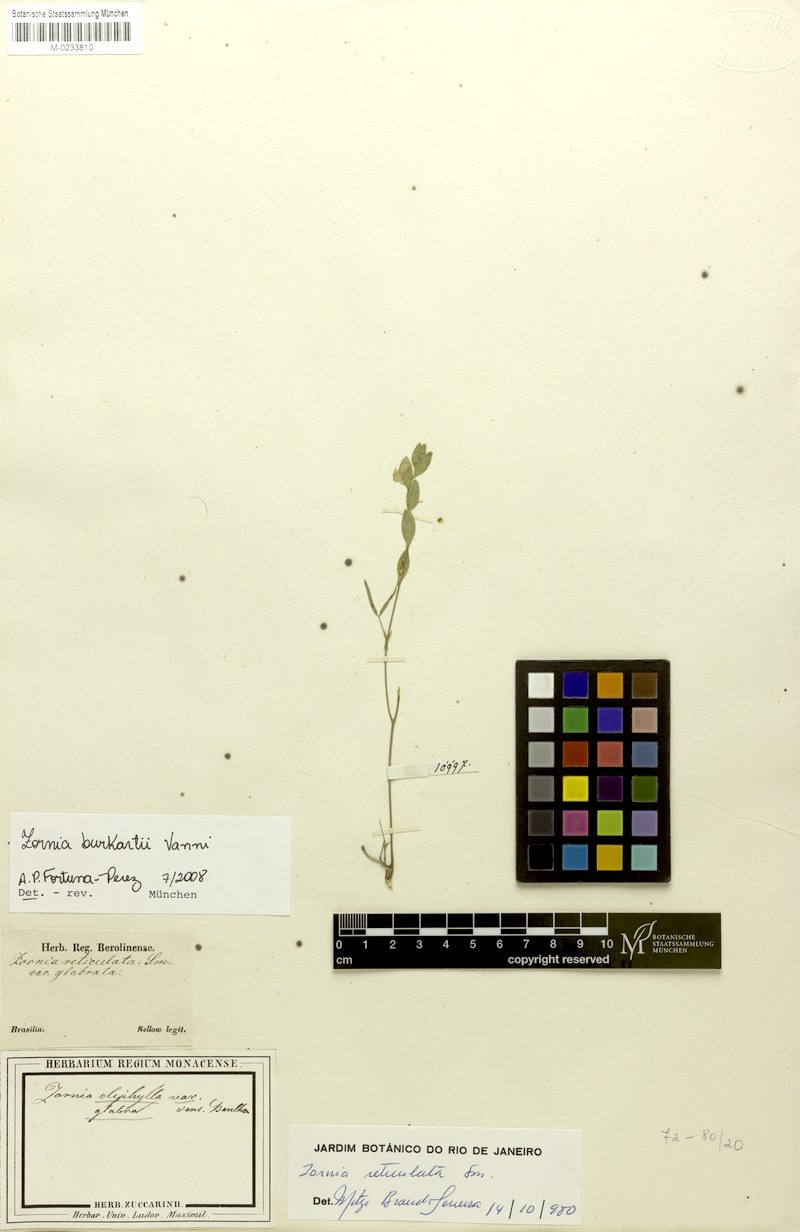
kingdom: Plantae
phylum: Tracheophyta
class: Magnoliopsida
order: Fabales
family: Fabaceae
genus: Zornia
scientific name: Zornia burkartii
